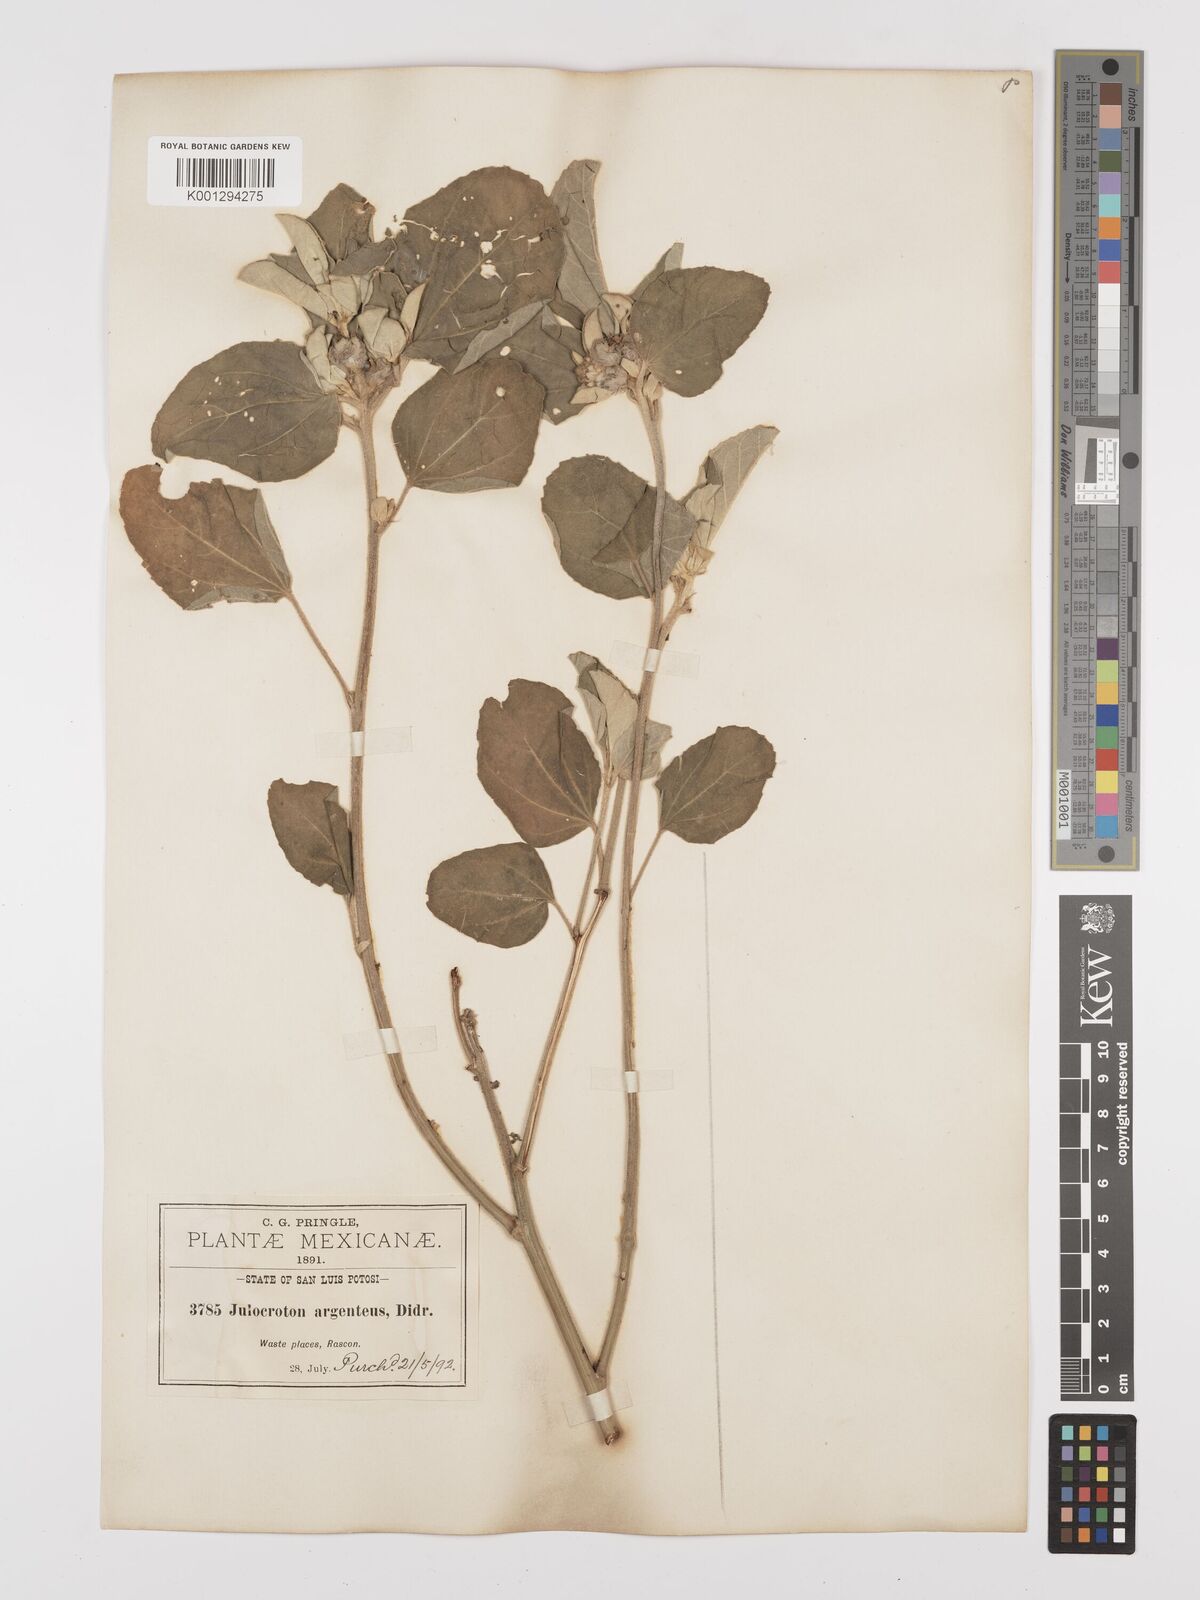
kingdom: Plantae
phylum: Tracheophyta
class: Magnoliopsida
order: Malpighiales
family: Euphorbiaceae
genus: Croton
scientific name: Croton argenteus
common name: Silver july croton
